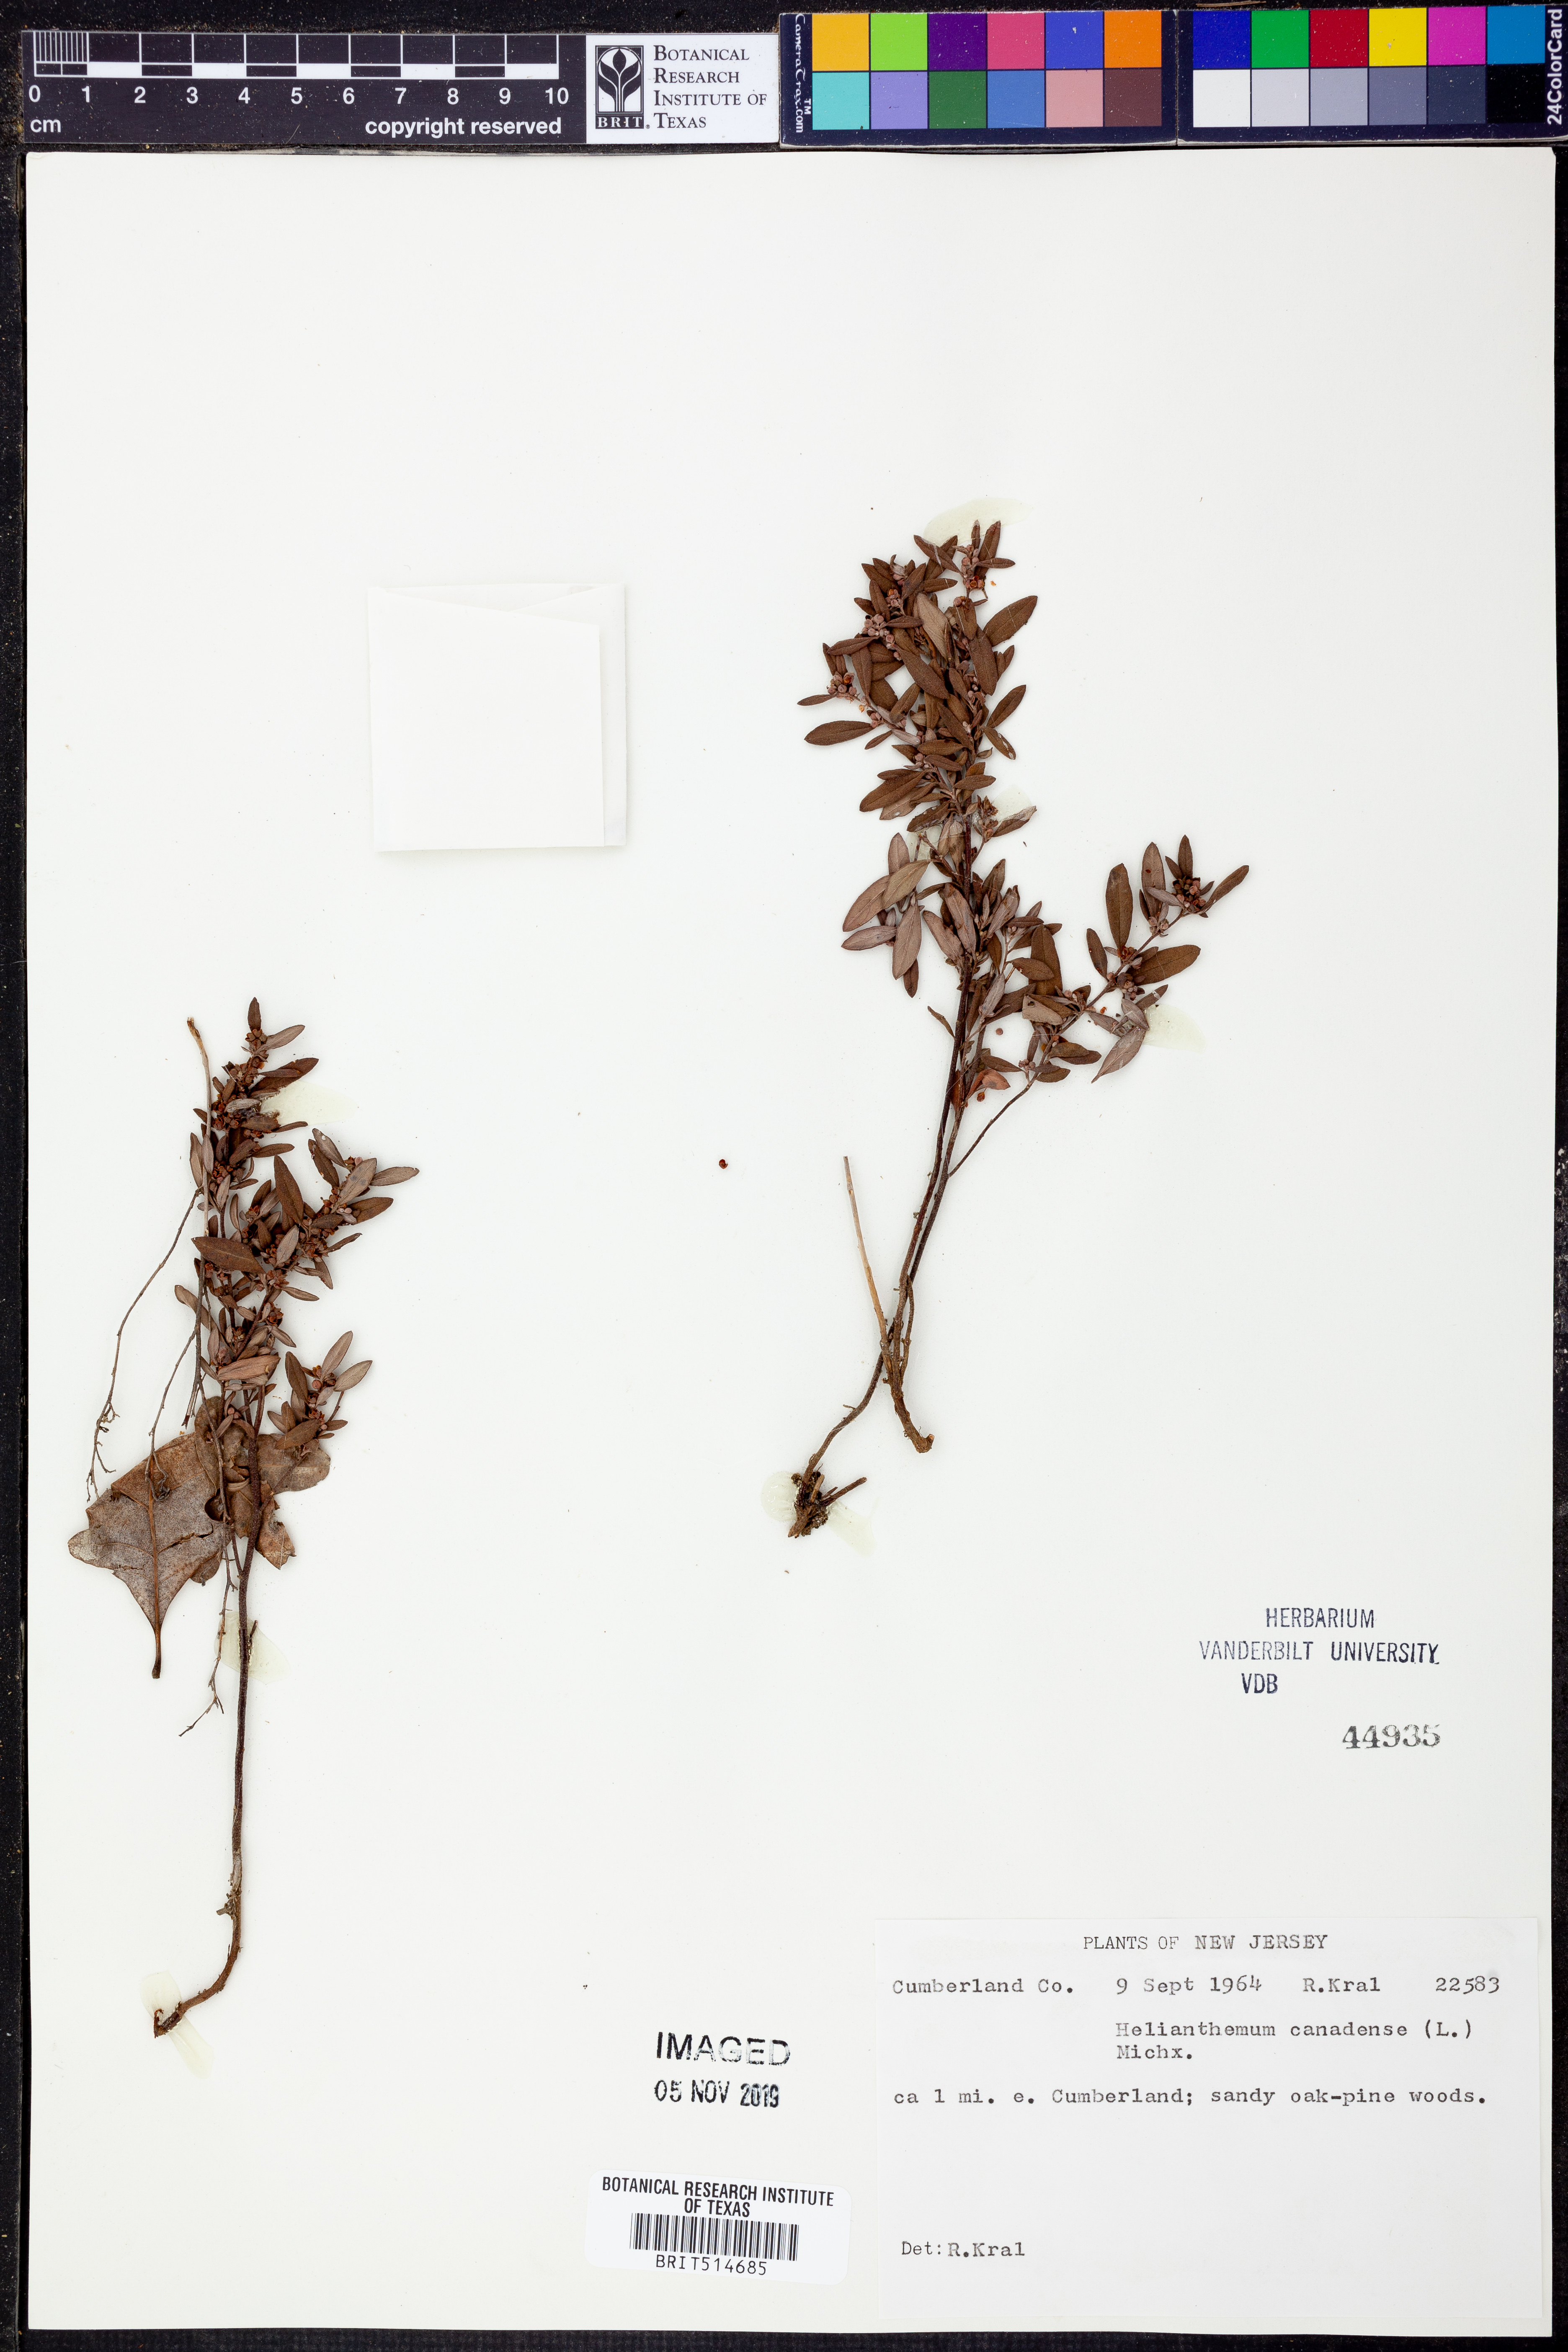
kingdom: Plantae
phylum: Tracheophyta
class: Magnoliopsida
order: Malvales
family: Cistaceae
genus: Crocanthemum
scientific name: Crocanthemum canadense
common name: Canada frostweed
